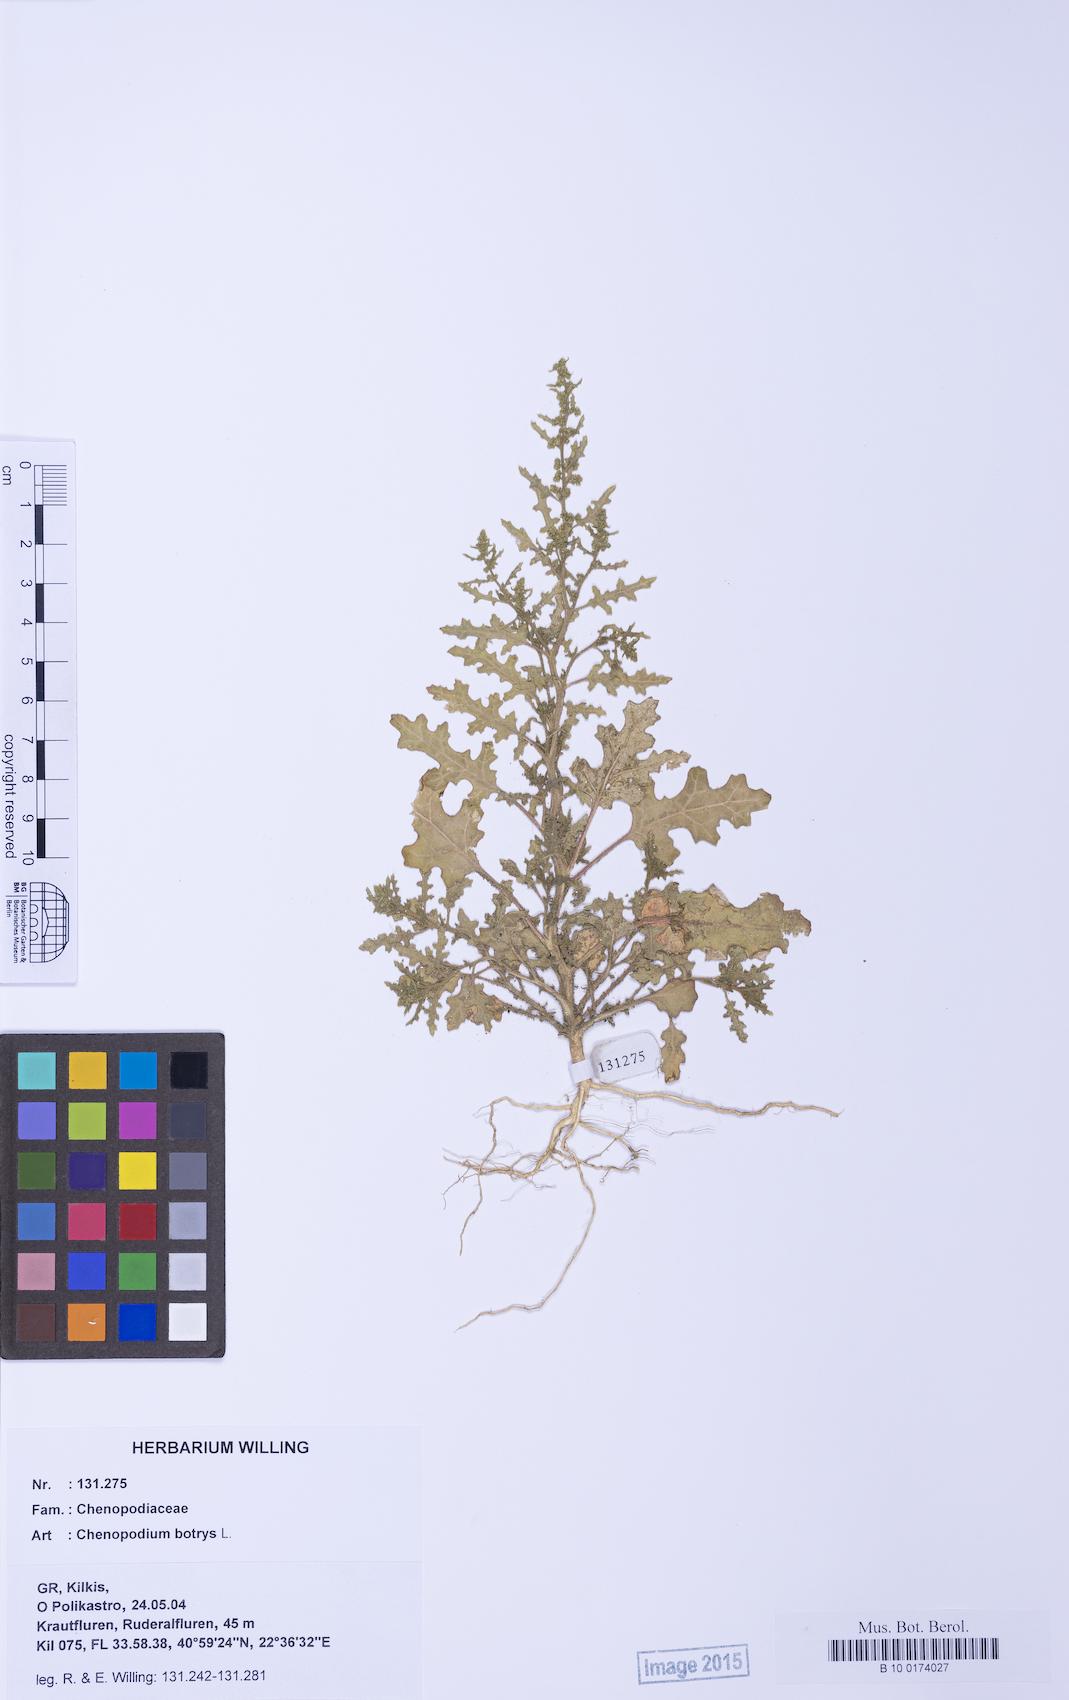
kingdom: Plantae
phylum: Tracheophyta
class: Magnoliopsida
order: Caryophyllales
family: Amaranthaceae
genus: Dysphania
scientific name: Dysphania botrys
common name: Feather-geranium
